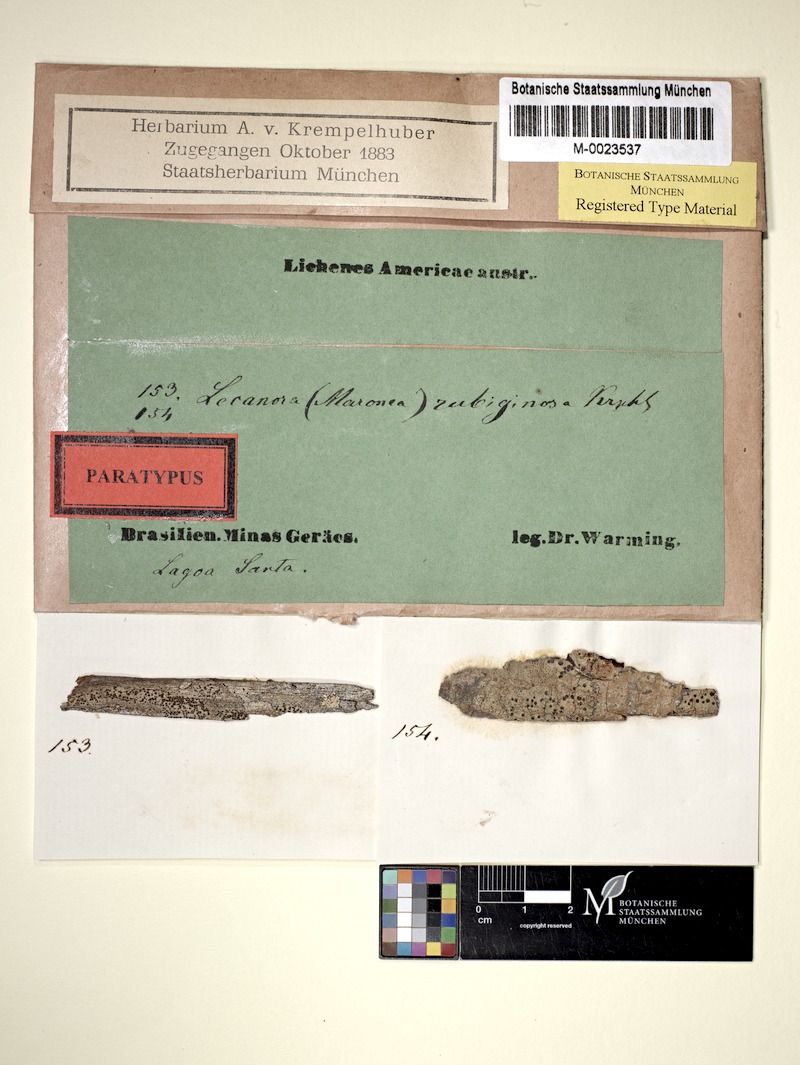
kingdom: Fungi
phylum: Ascomycota
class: Lecanoromycetes
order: Umbilicariales
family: Fuscideaceae
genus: Maronea
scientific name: Maronea rubiginosa
